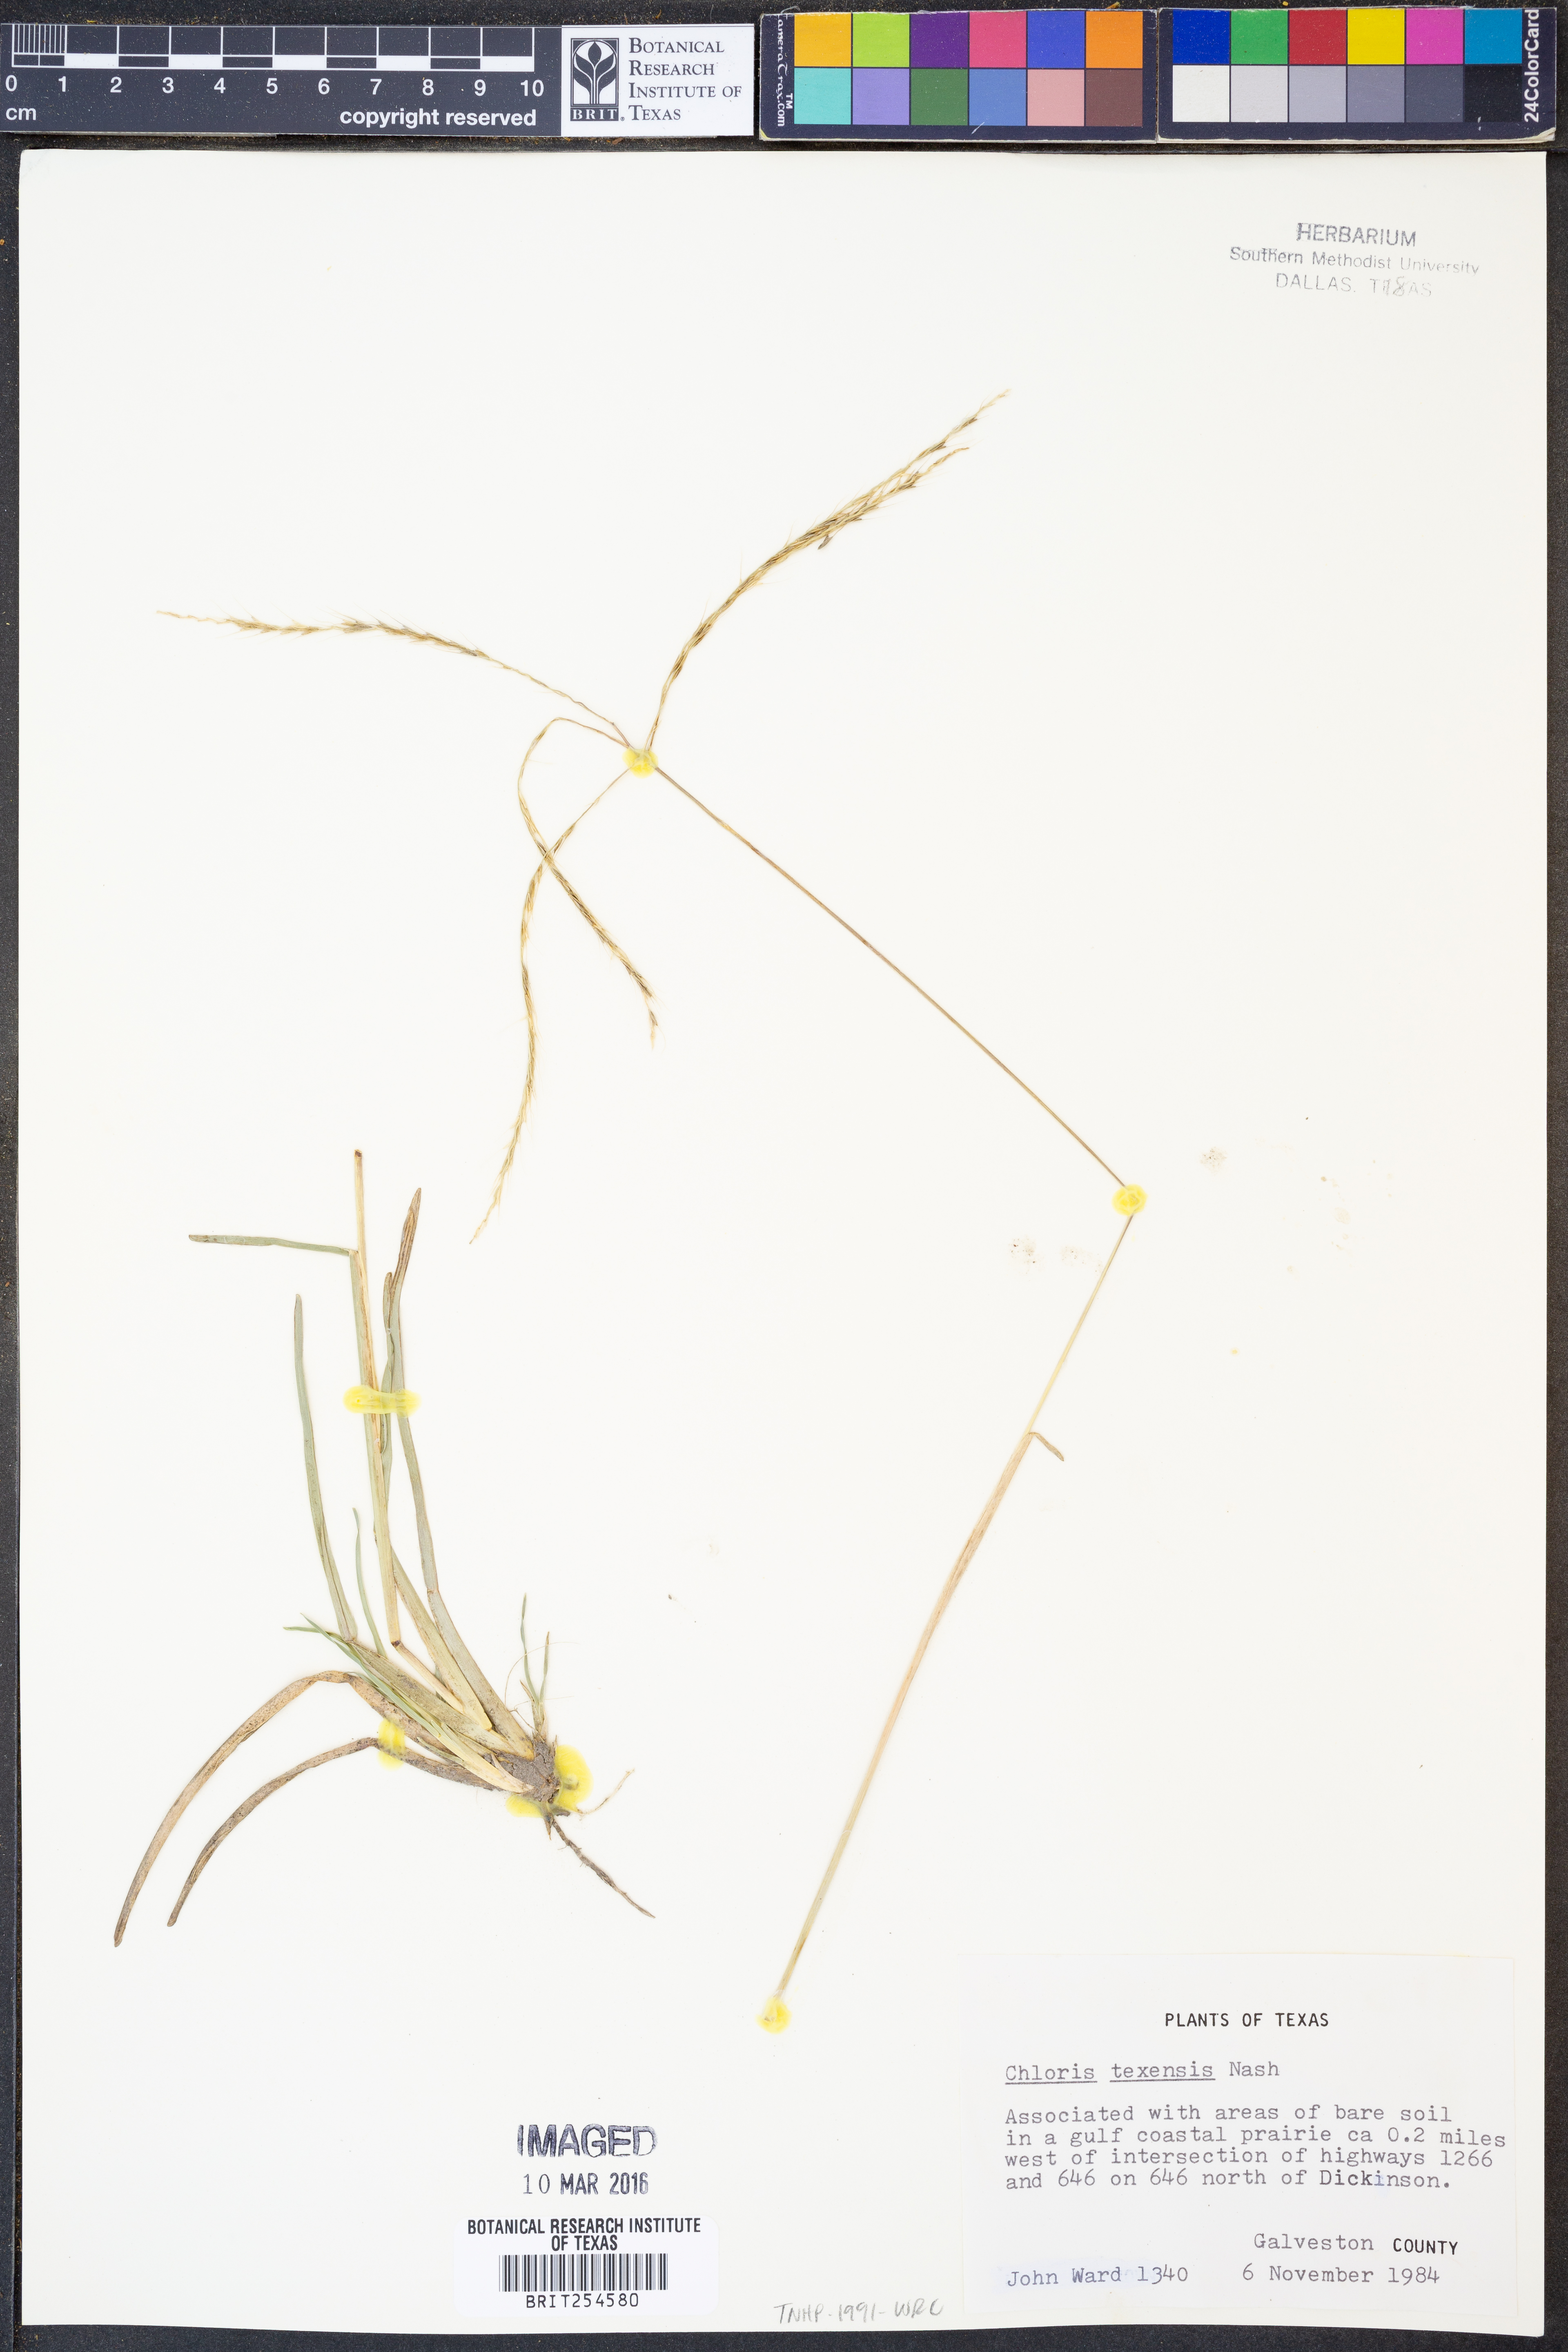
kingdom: Plantae
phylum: Tracheophyta
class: Liliopsida
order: Poales
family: Poaceae
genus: Chloris
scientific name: Chloris texensis
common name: Texas windmill grass
